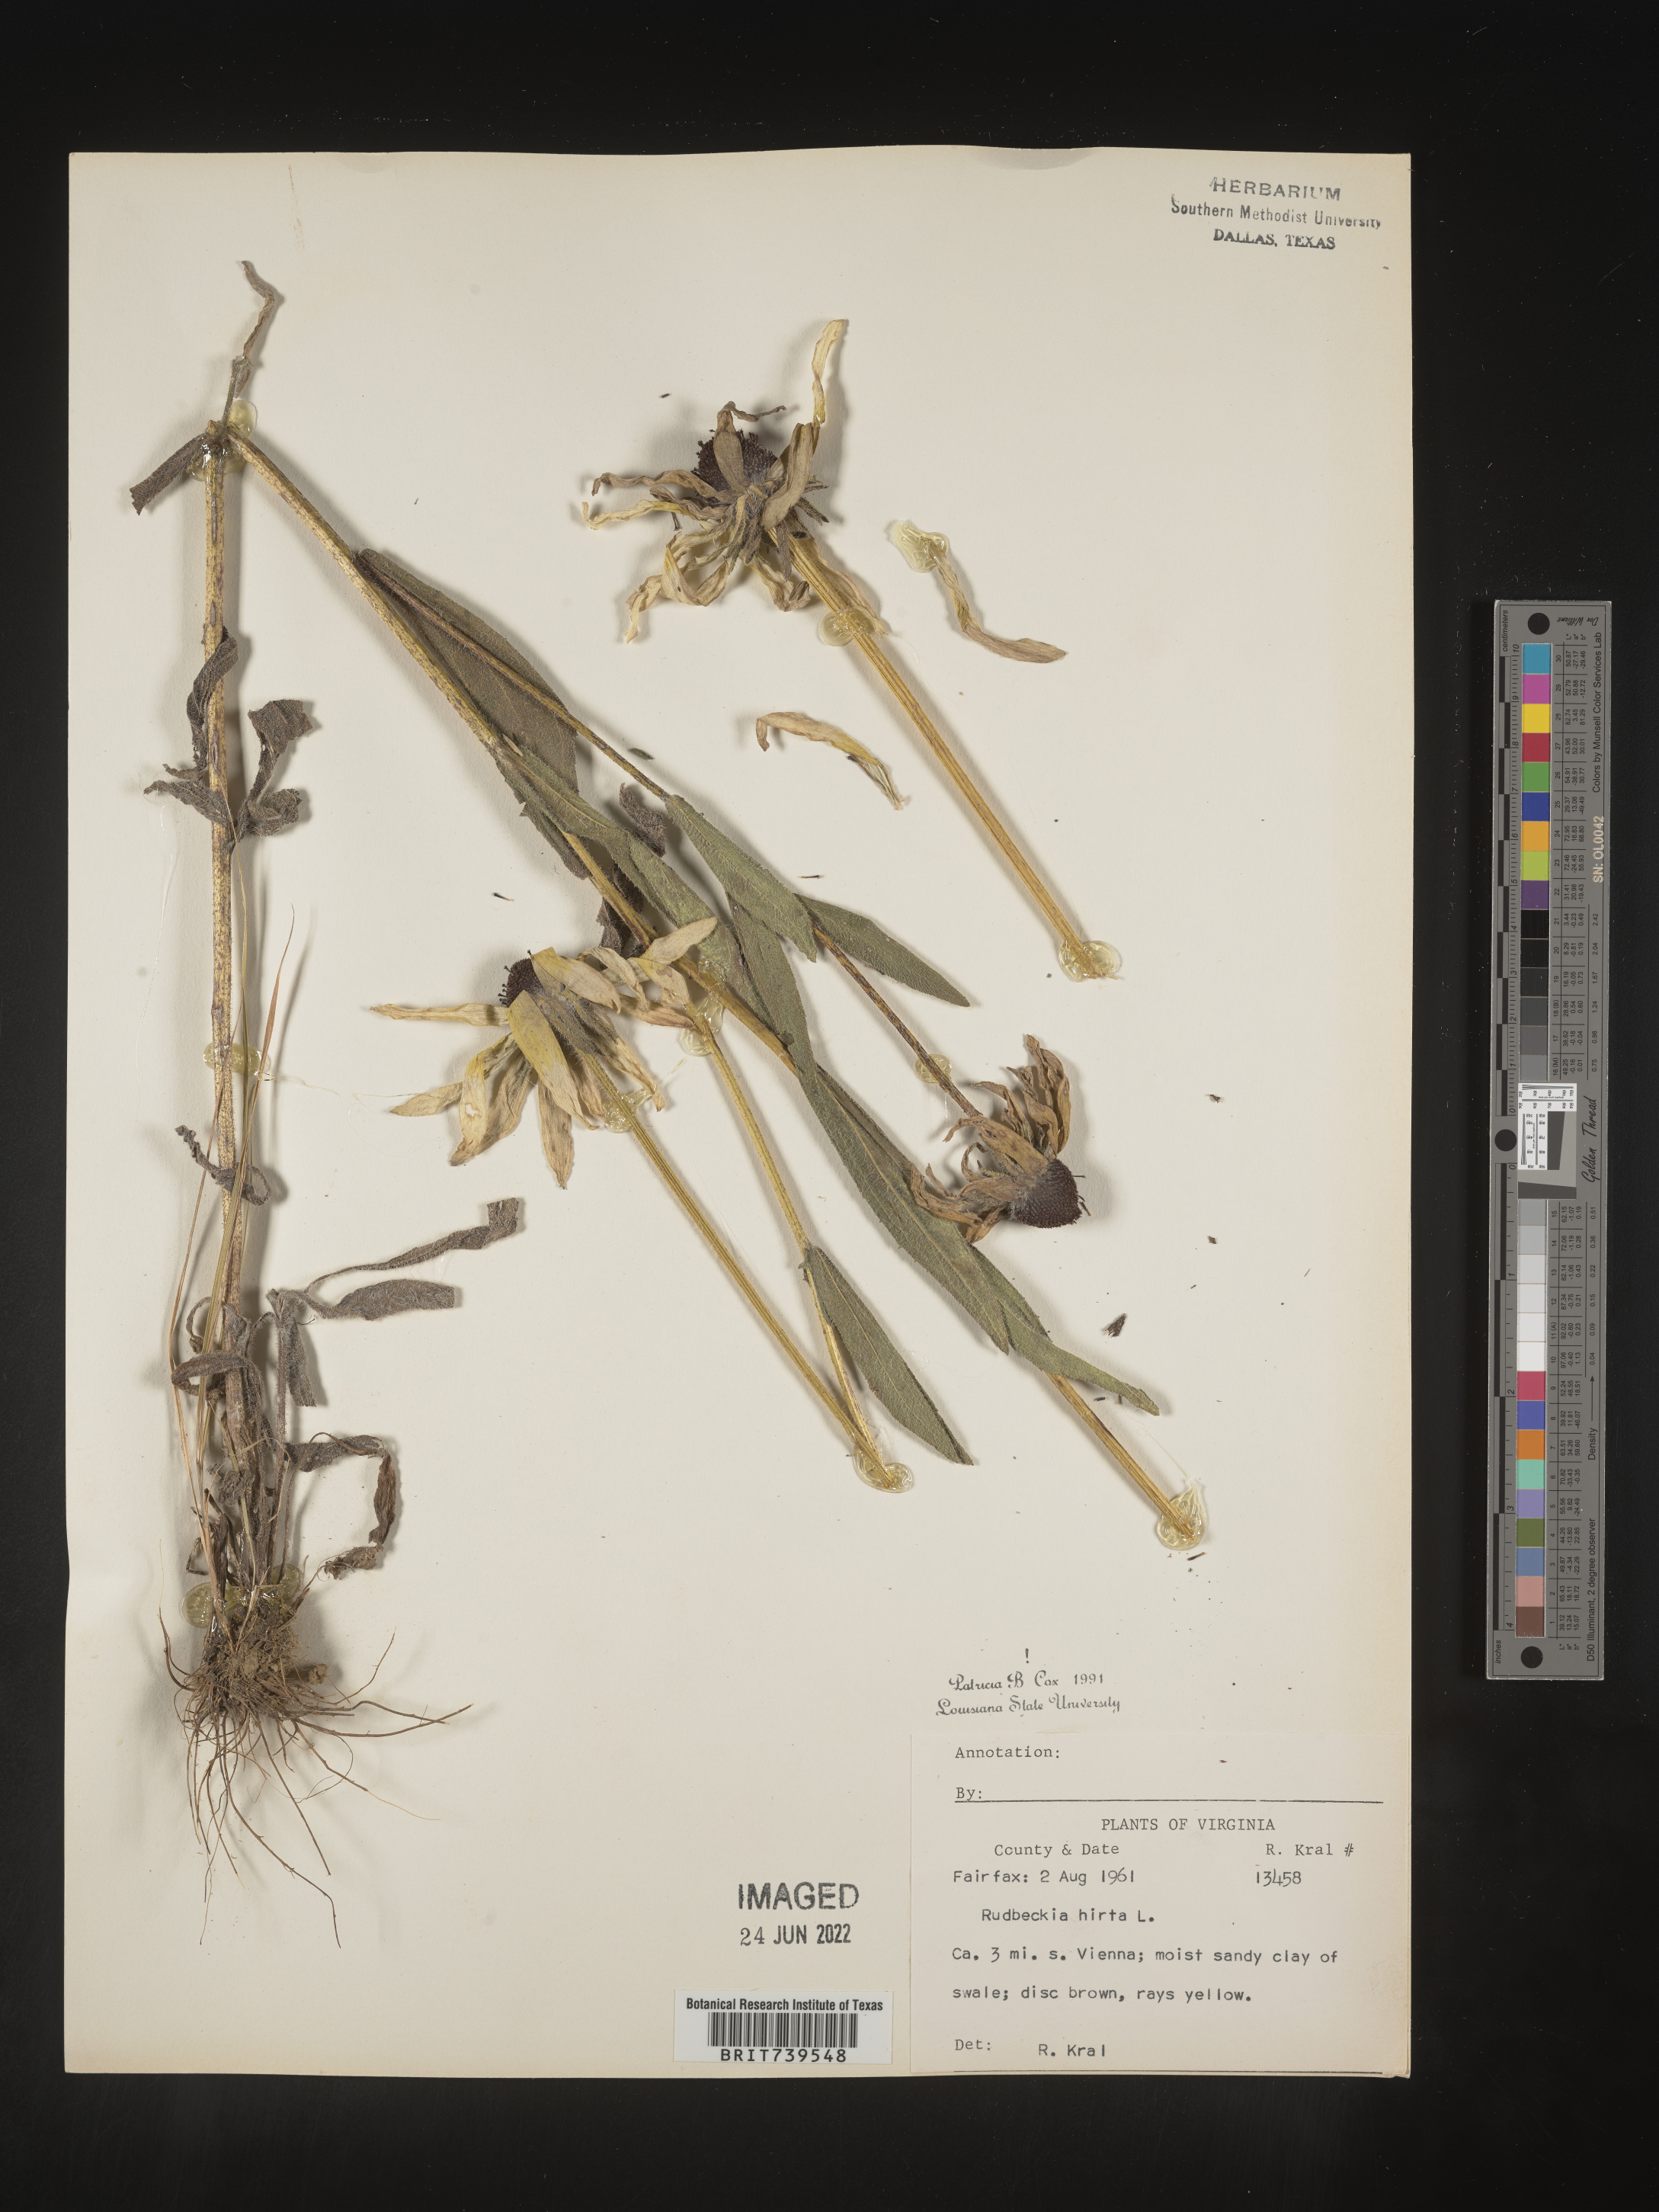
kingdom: Plantae
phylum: Tracheophyta
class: Magnoliopsida
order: Asterales
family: Asteraceae
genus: Rudbeckia
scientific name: Rudbeckia hirta
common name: Black-eyed-susan
